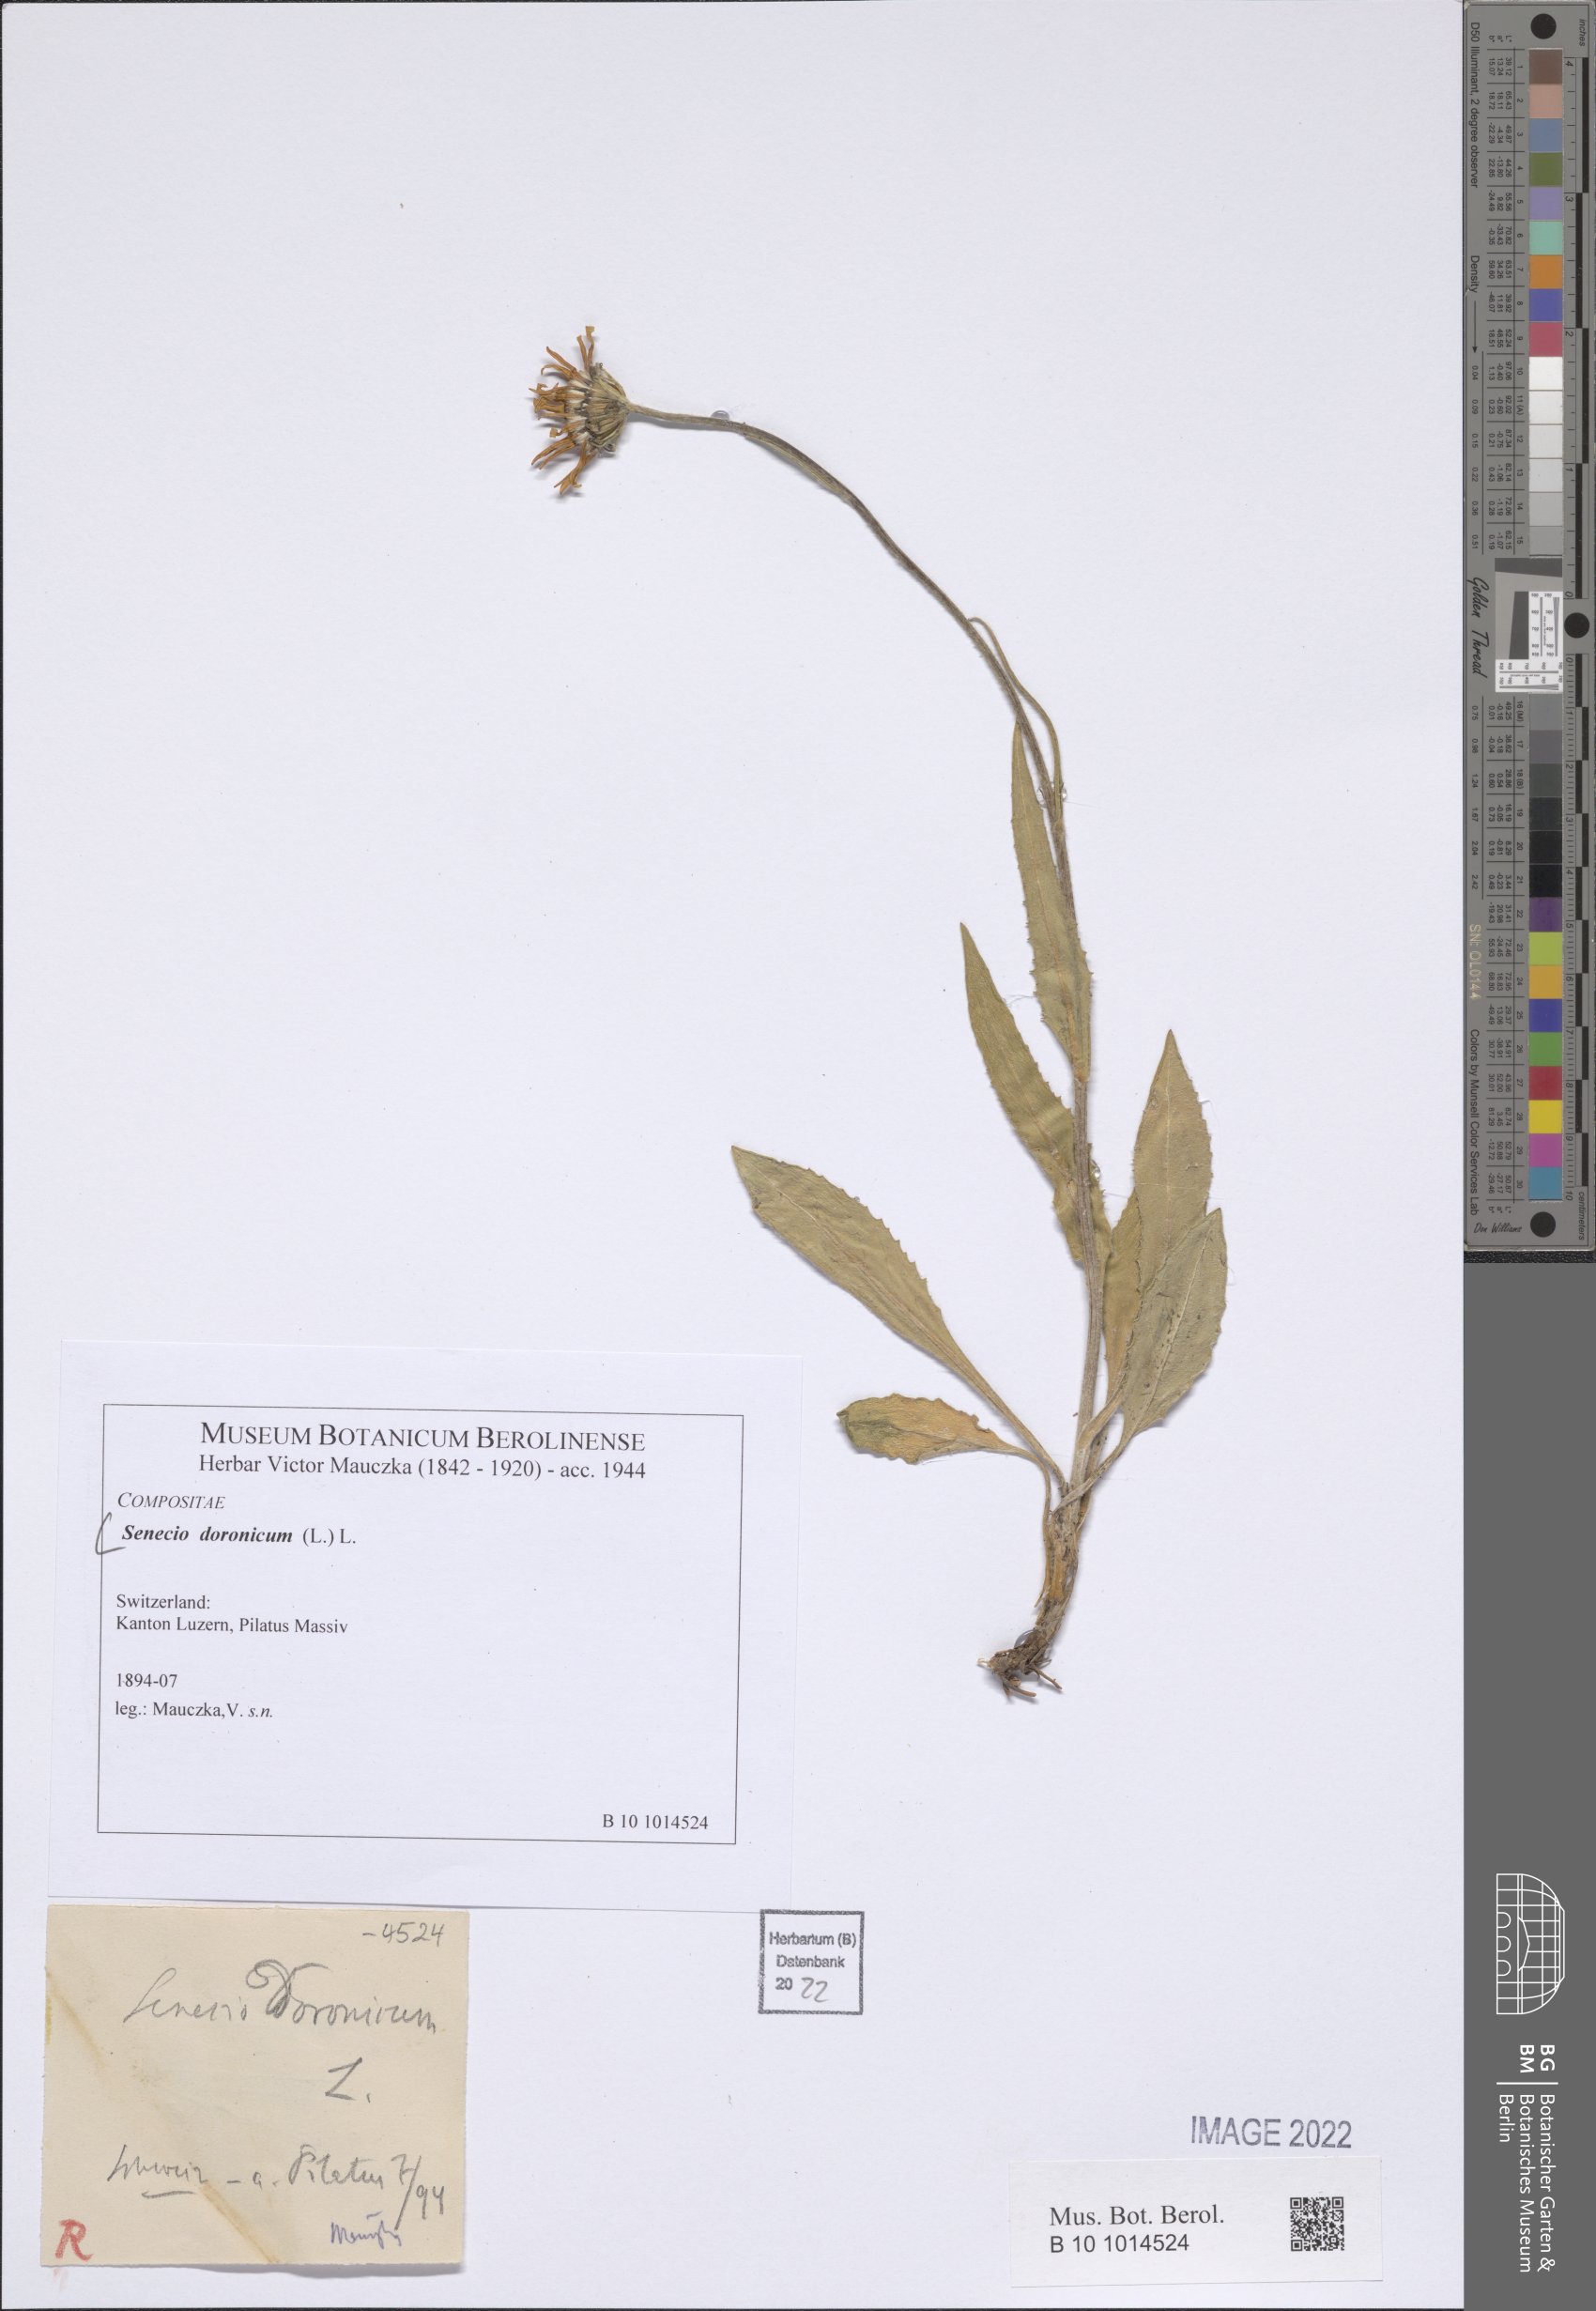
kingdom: Plantae
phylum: Tracheophyta
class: Magnoliopsida
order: Asterales
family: Asteraceae
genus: Senecio
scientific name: Senecio doronicum
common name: Chamois ragwort
